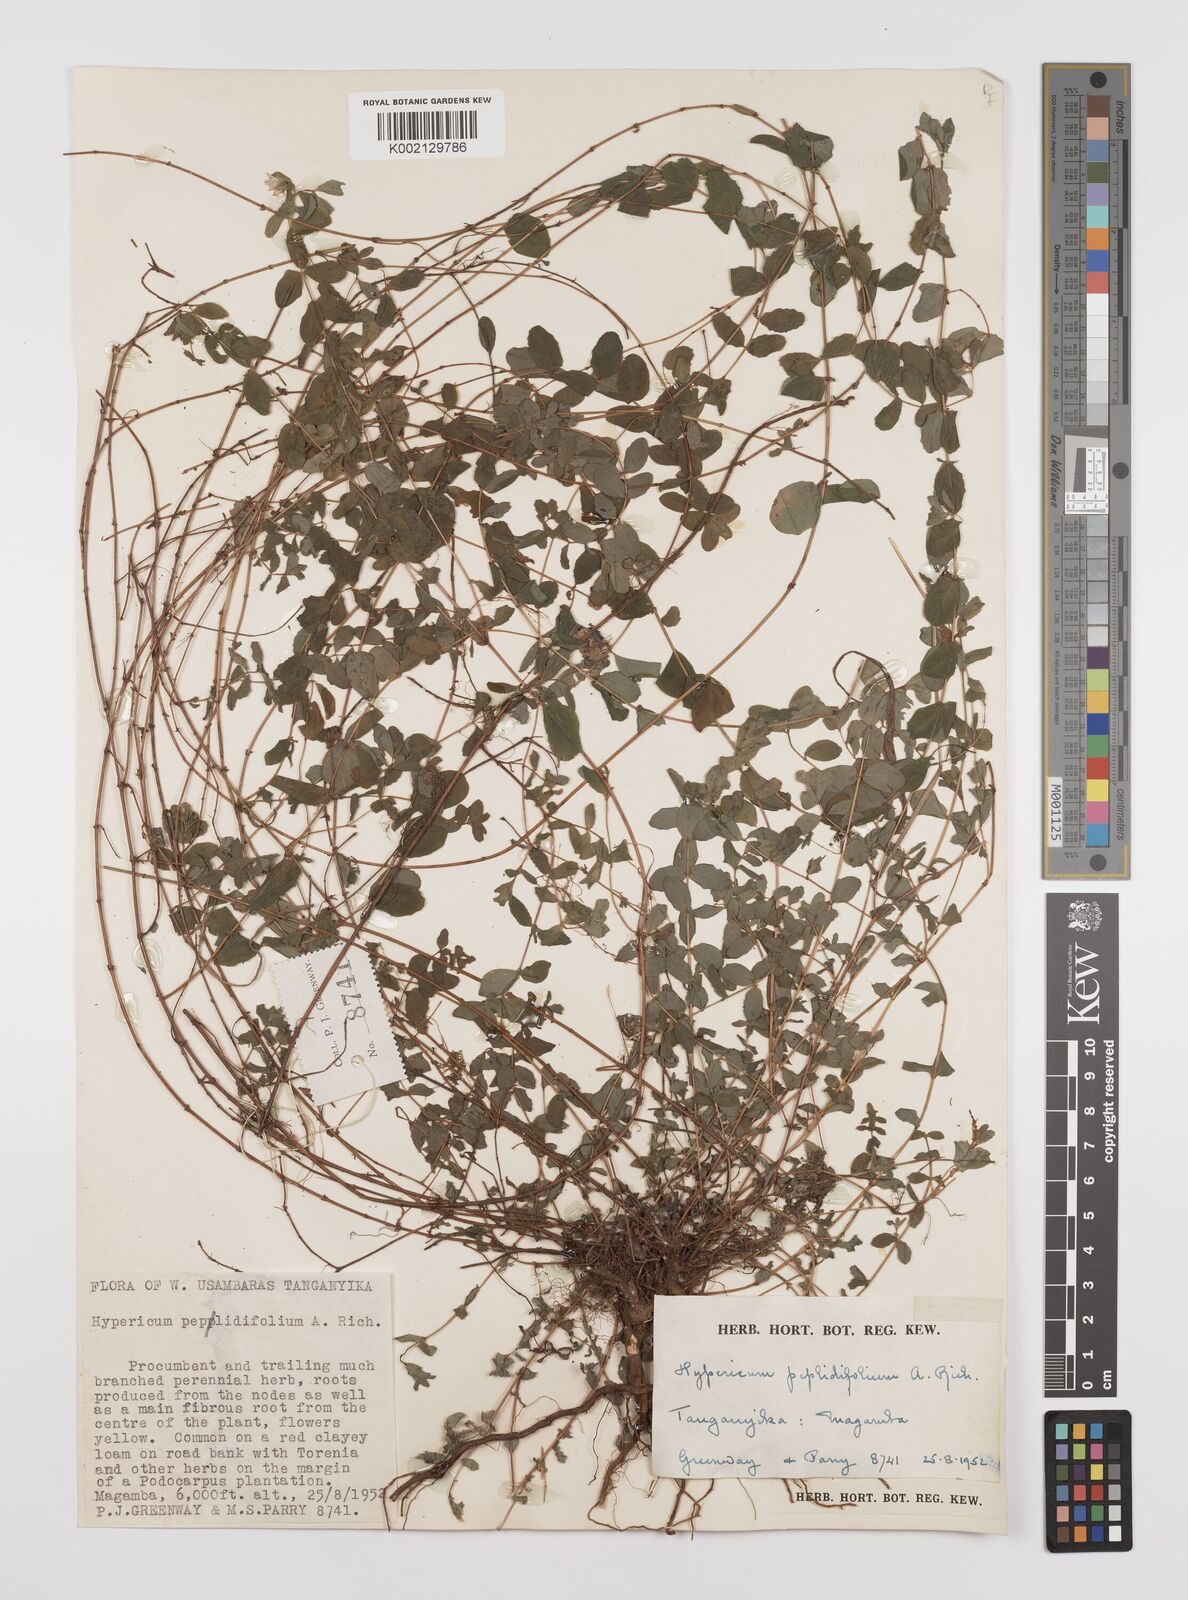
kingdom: Plantae
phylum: Tracheophyta
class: Magnoliopsida
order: Malpighiales
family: Hypericaceae
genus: Hypericum
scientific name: Hypericum peplidifolium
